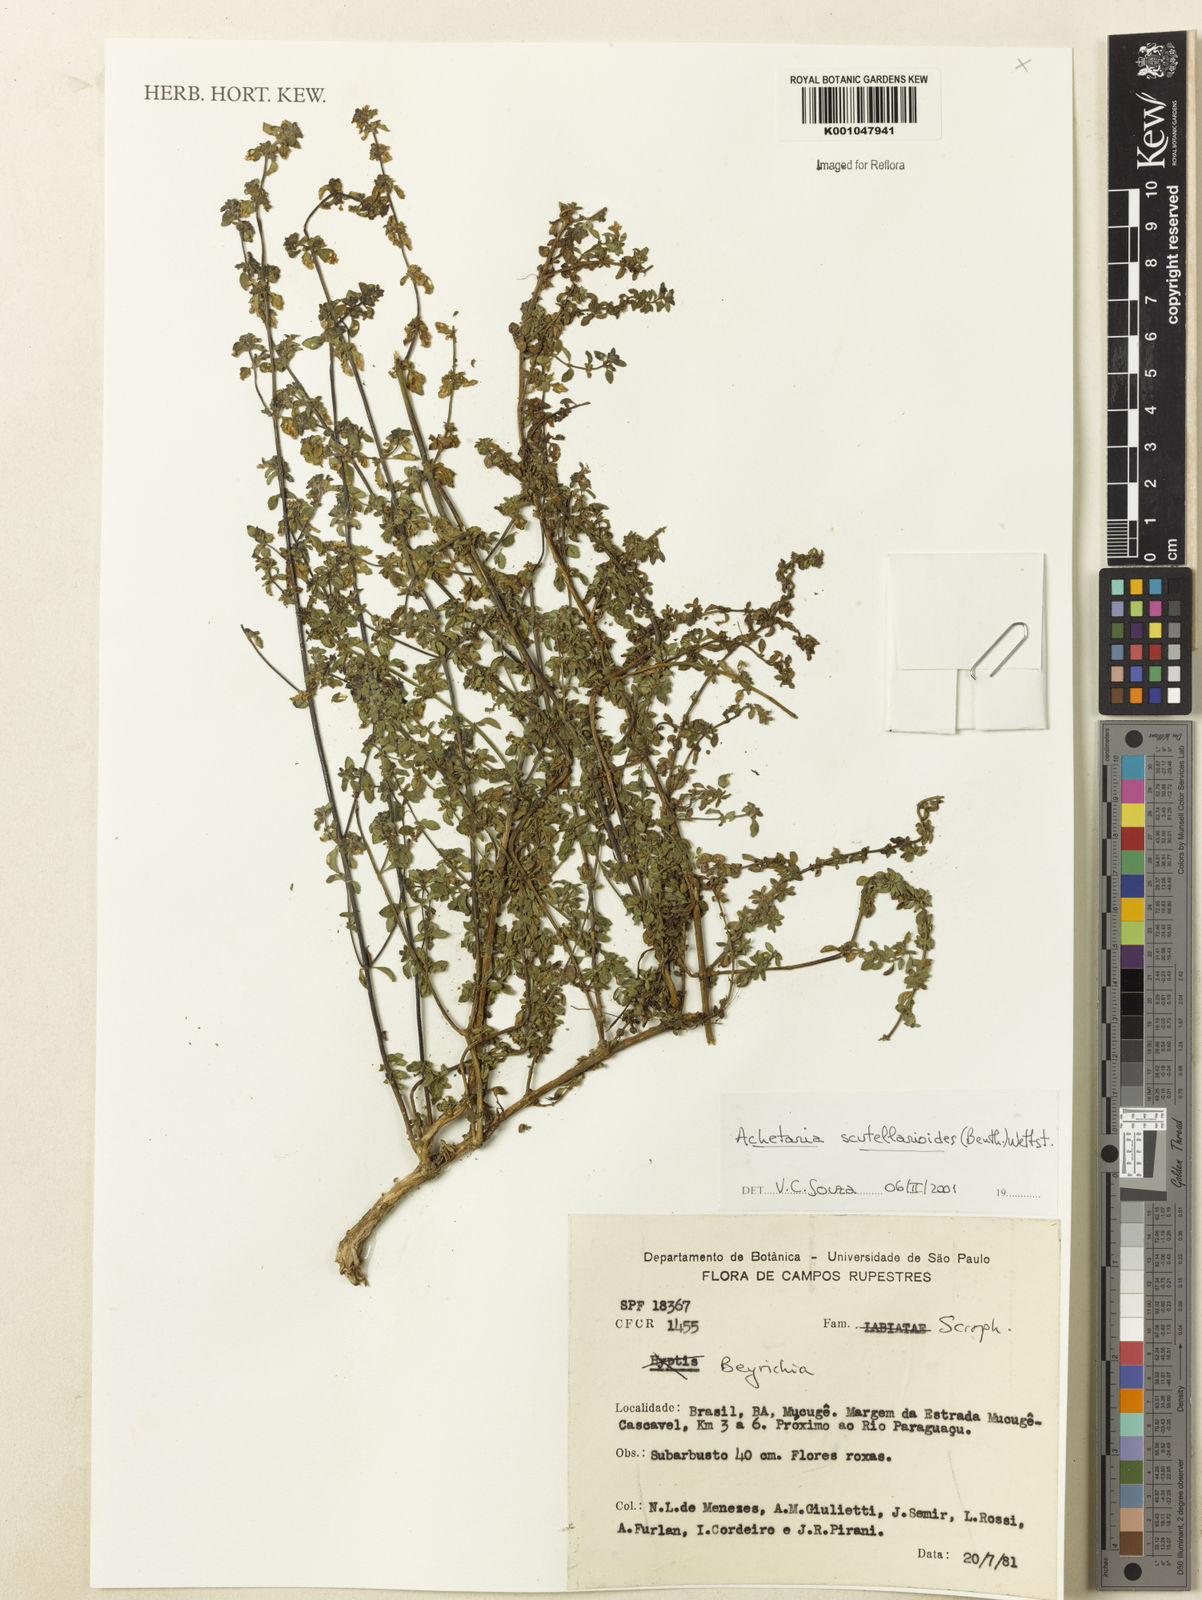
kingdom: Plantae
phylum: Tracheophyta
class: Magnoliopsida
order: Lamiales
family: Plantaginaceae
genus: Matourea
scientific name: Matourea scutellarioides
